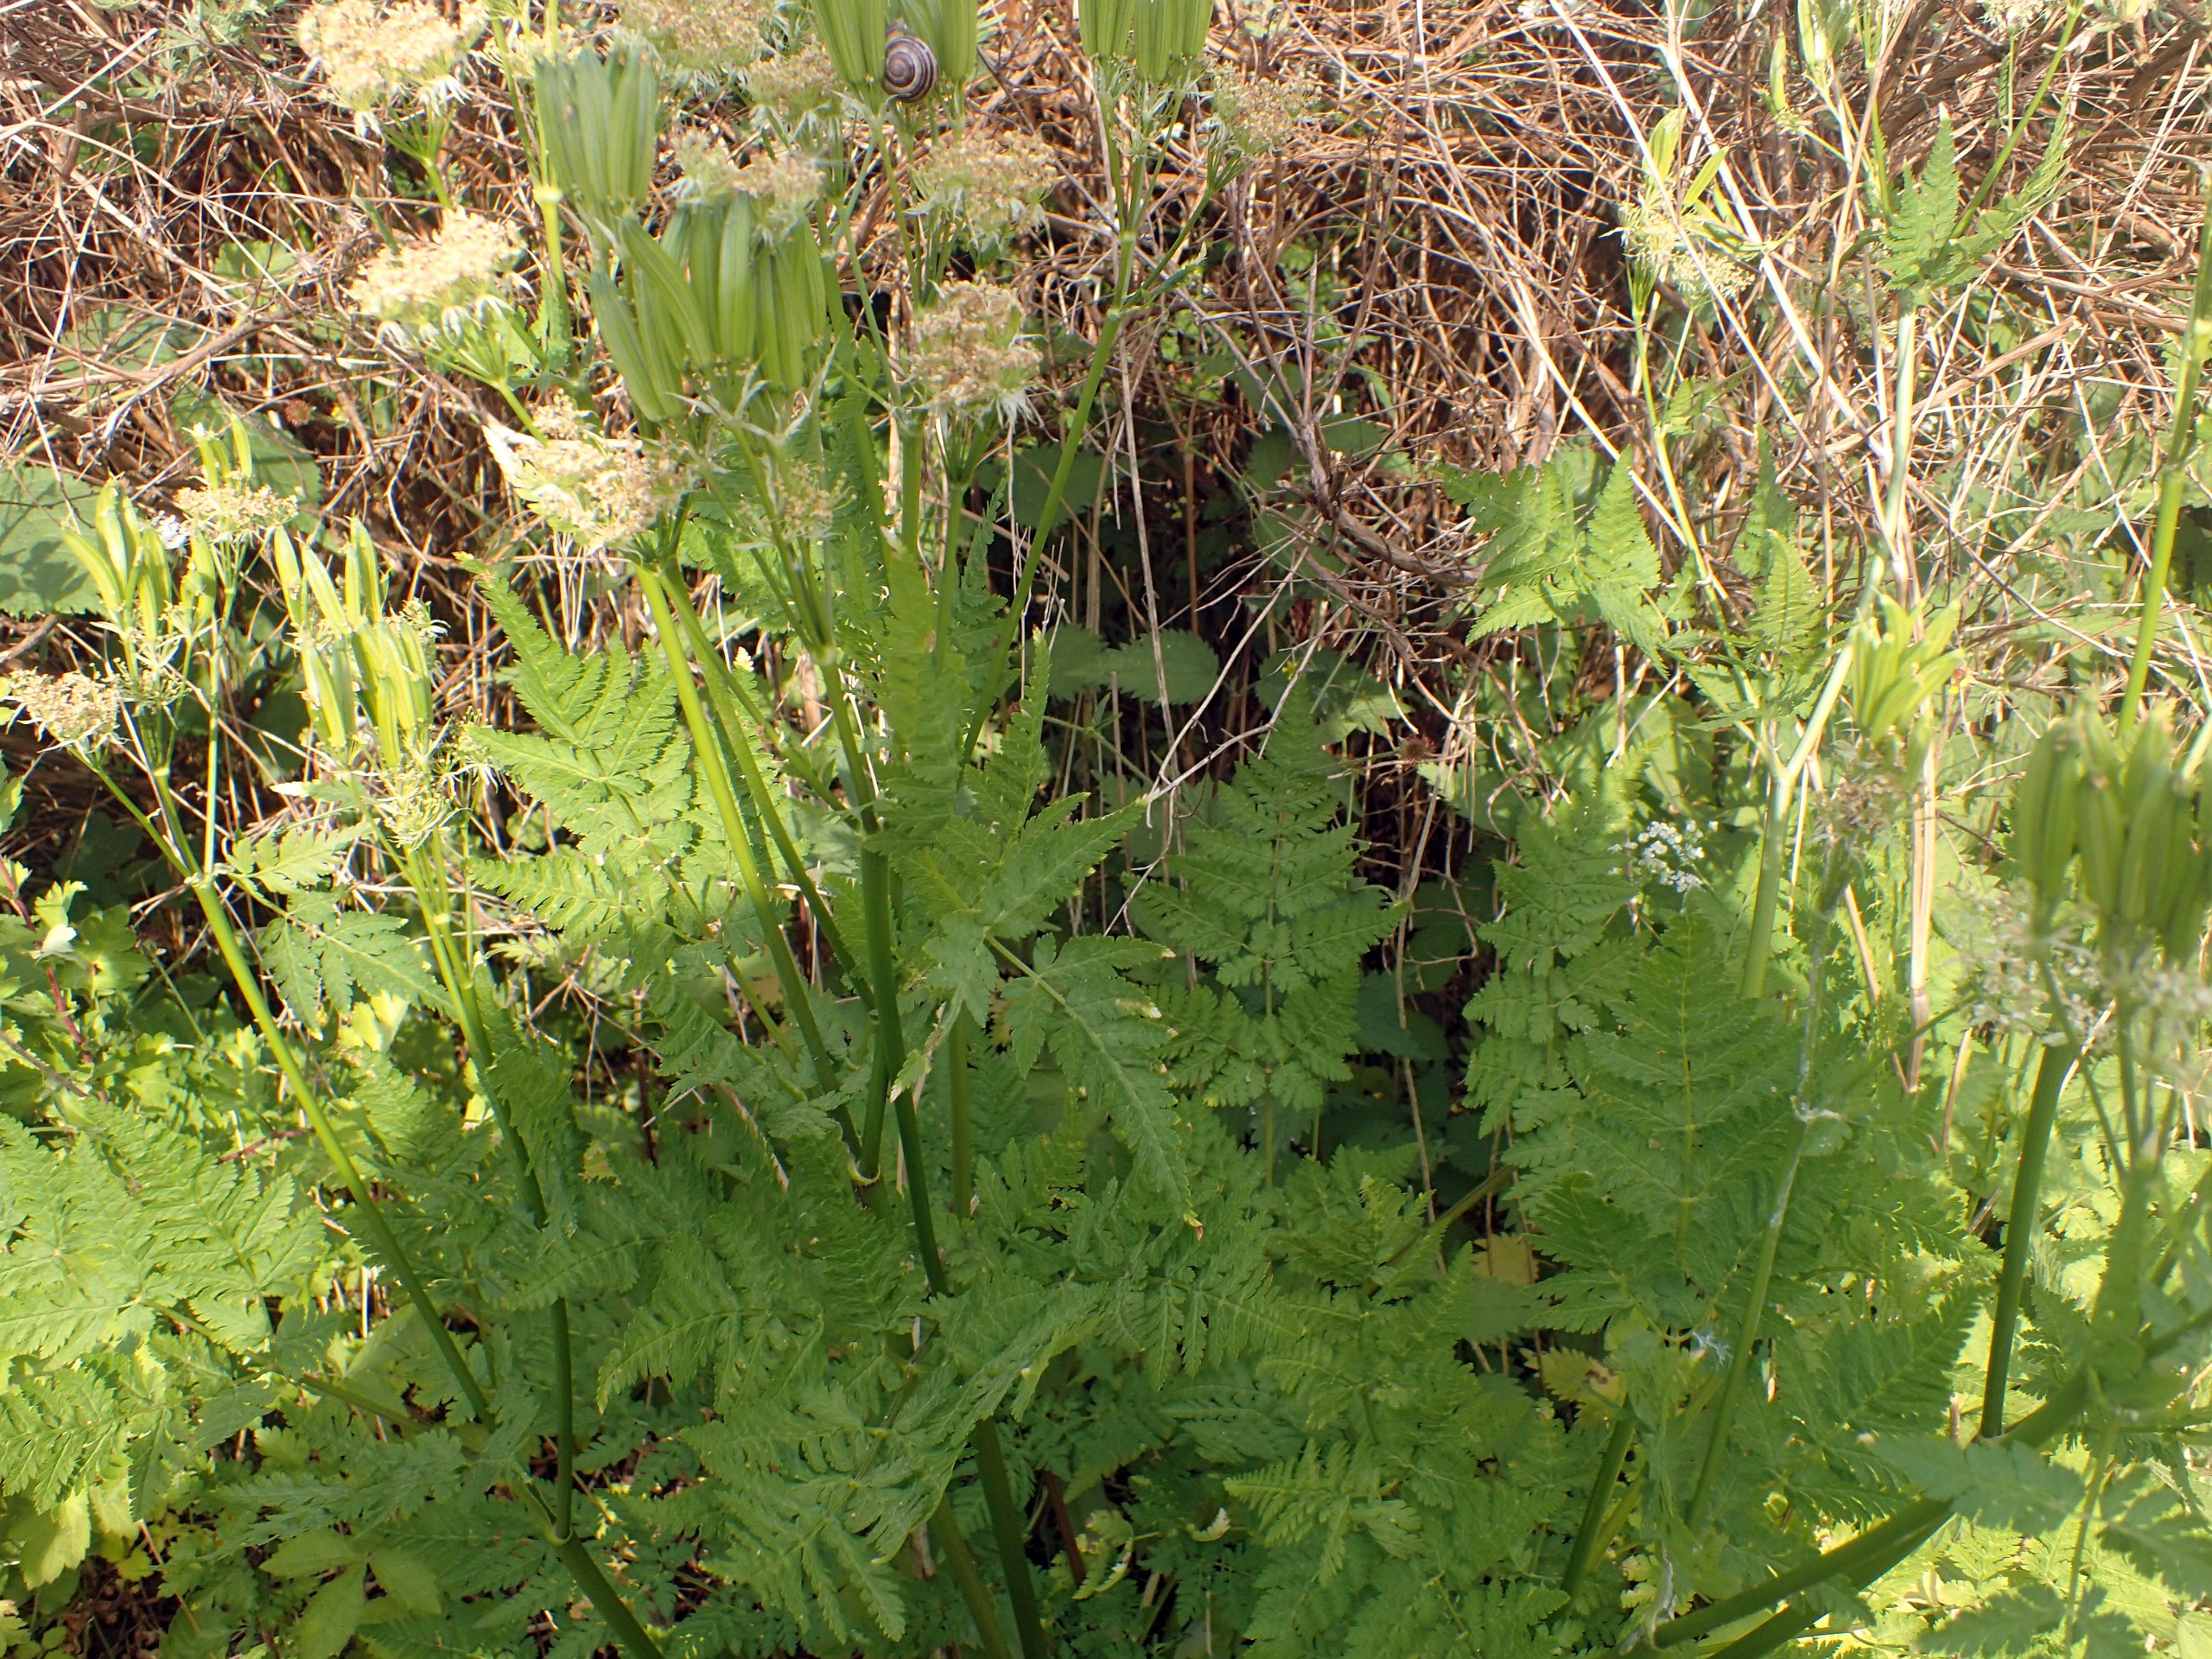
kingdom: Plantae
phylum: Tracheophyta
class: Magnoliopsida
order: Apiales
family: Apiaceae
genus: Myrrhis
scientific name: Myrrhis odorata
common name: Sødskærm
